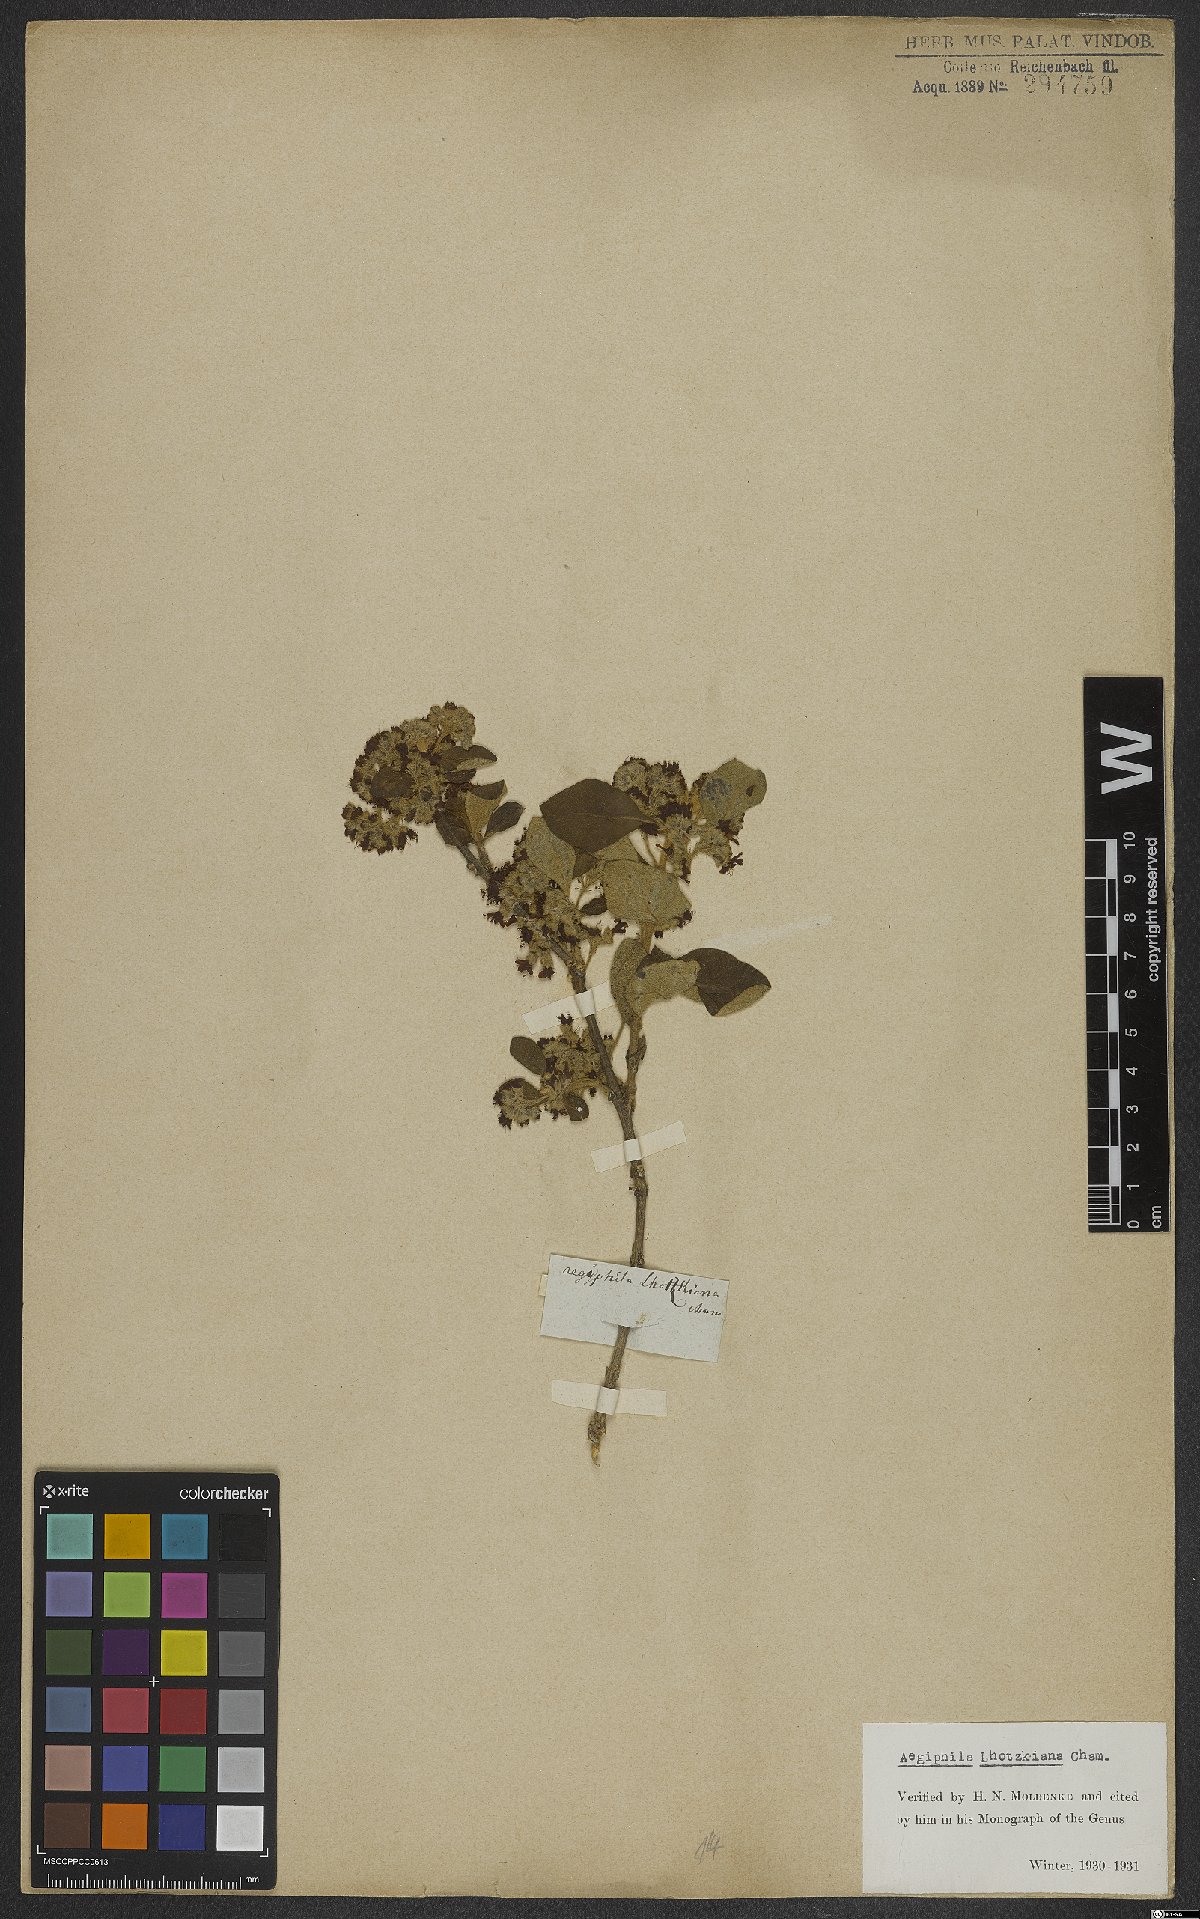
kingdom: Plantae
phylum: Tracheophyta
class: Magnoliopsida
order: Lamiales
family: Lamiaceae
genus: Aegiphila
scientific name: Aegiphila lhotskiana
